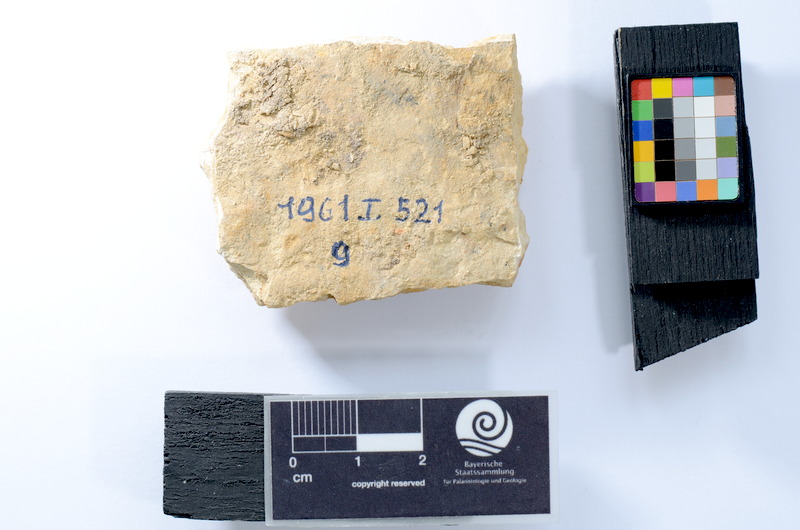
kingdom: Animalia
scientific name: Animalia
